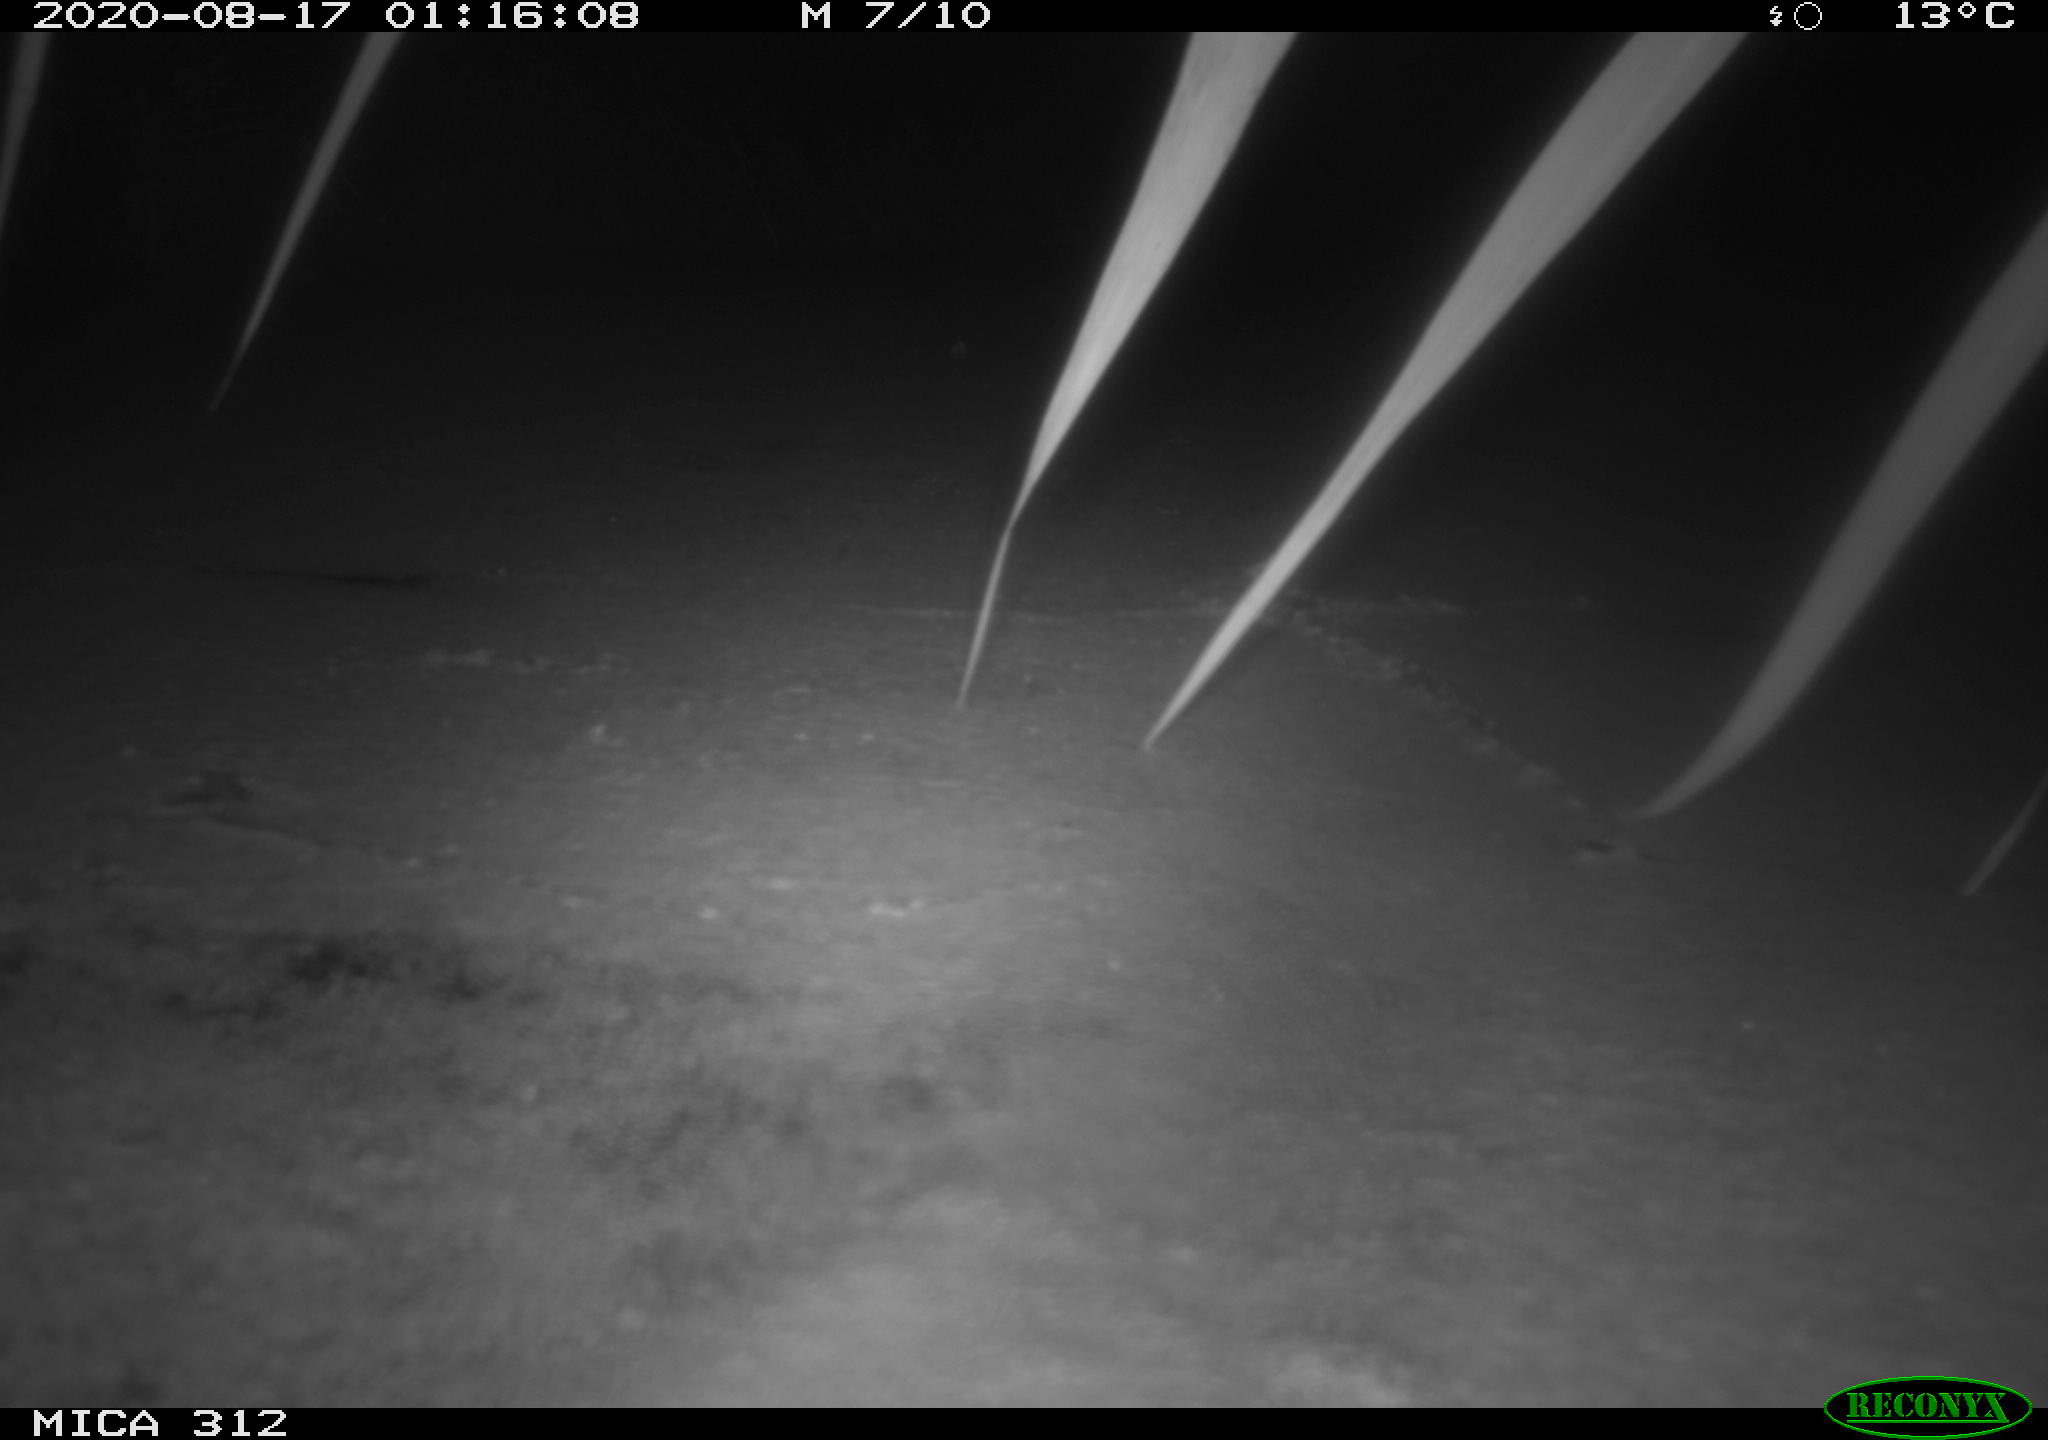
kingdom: Animalia
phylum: Chordata
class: Mammalia
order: Rodentia
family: Cricetidae
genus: Ondatra
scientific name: Ondatra zibethicus
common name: Muskrat
